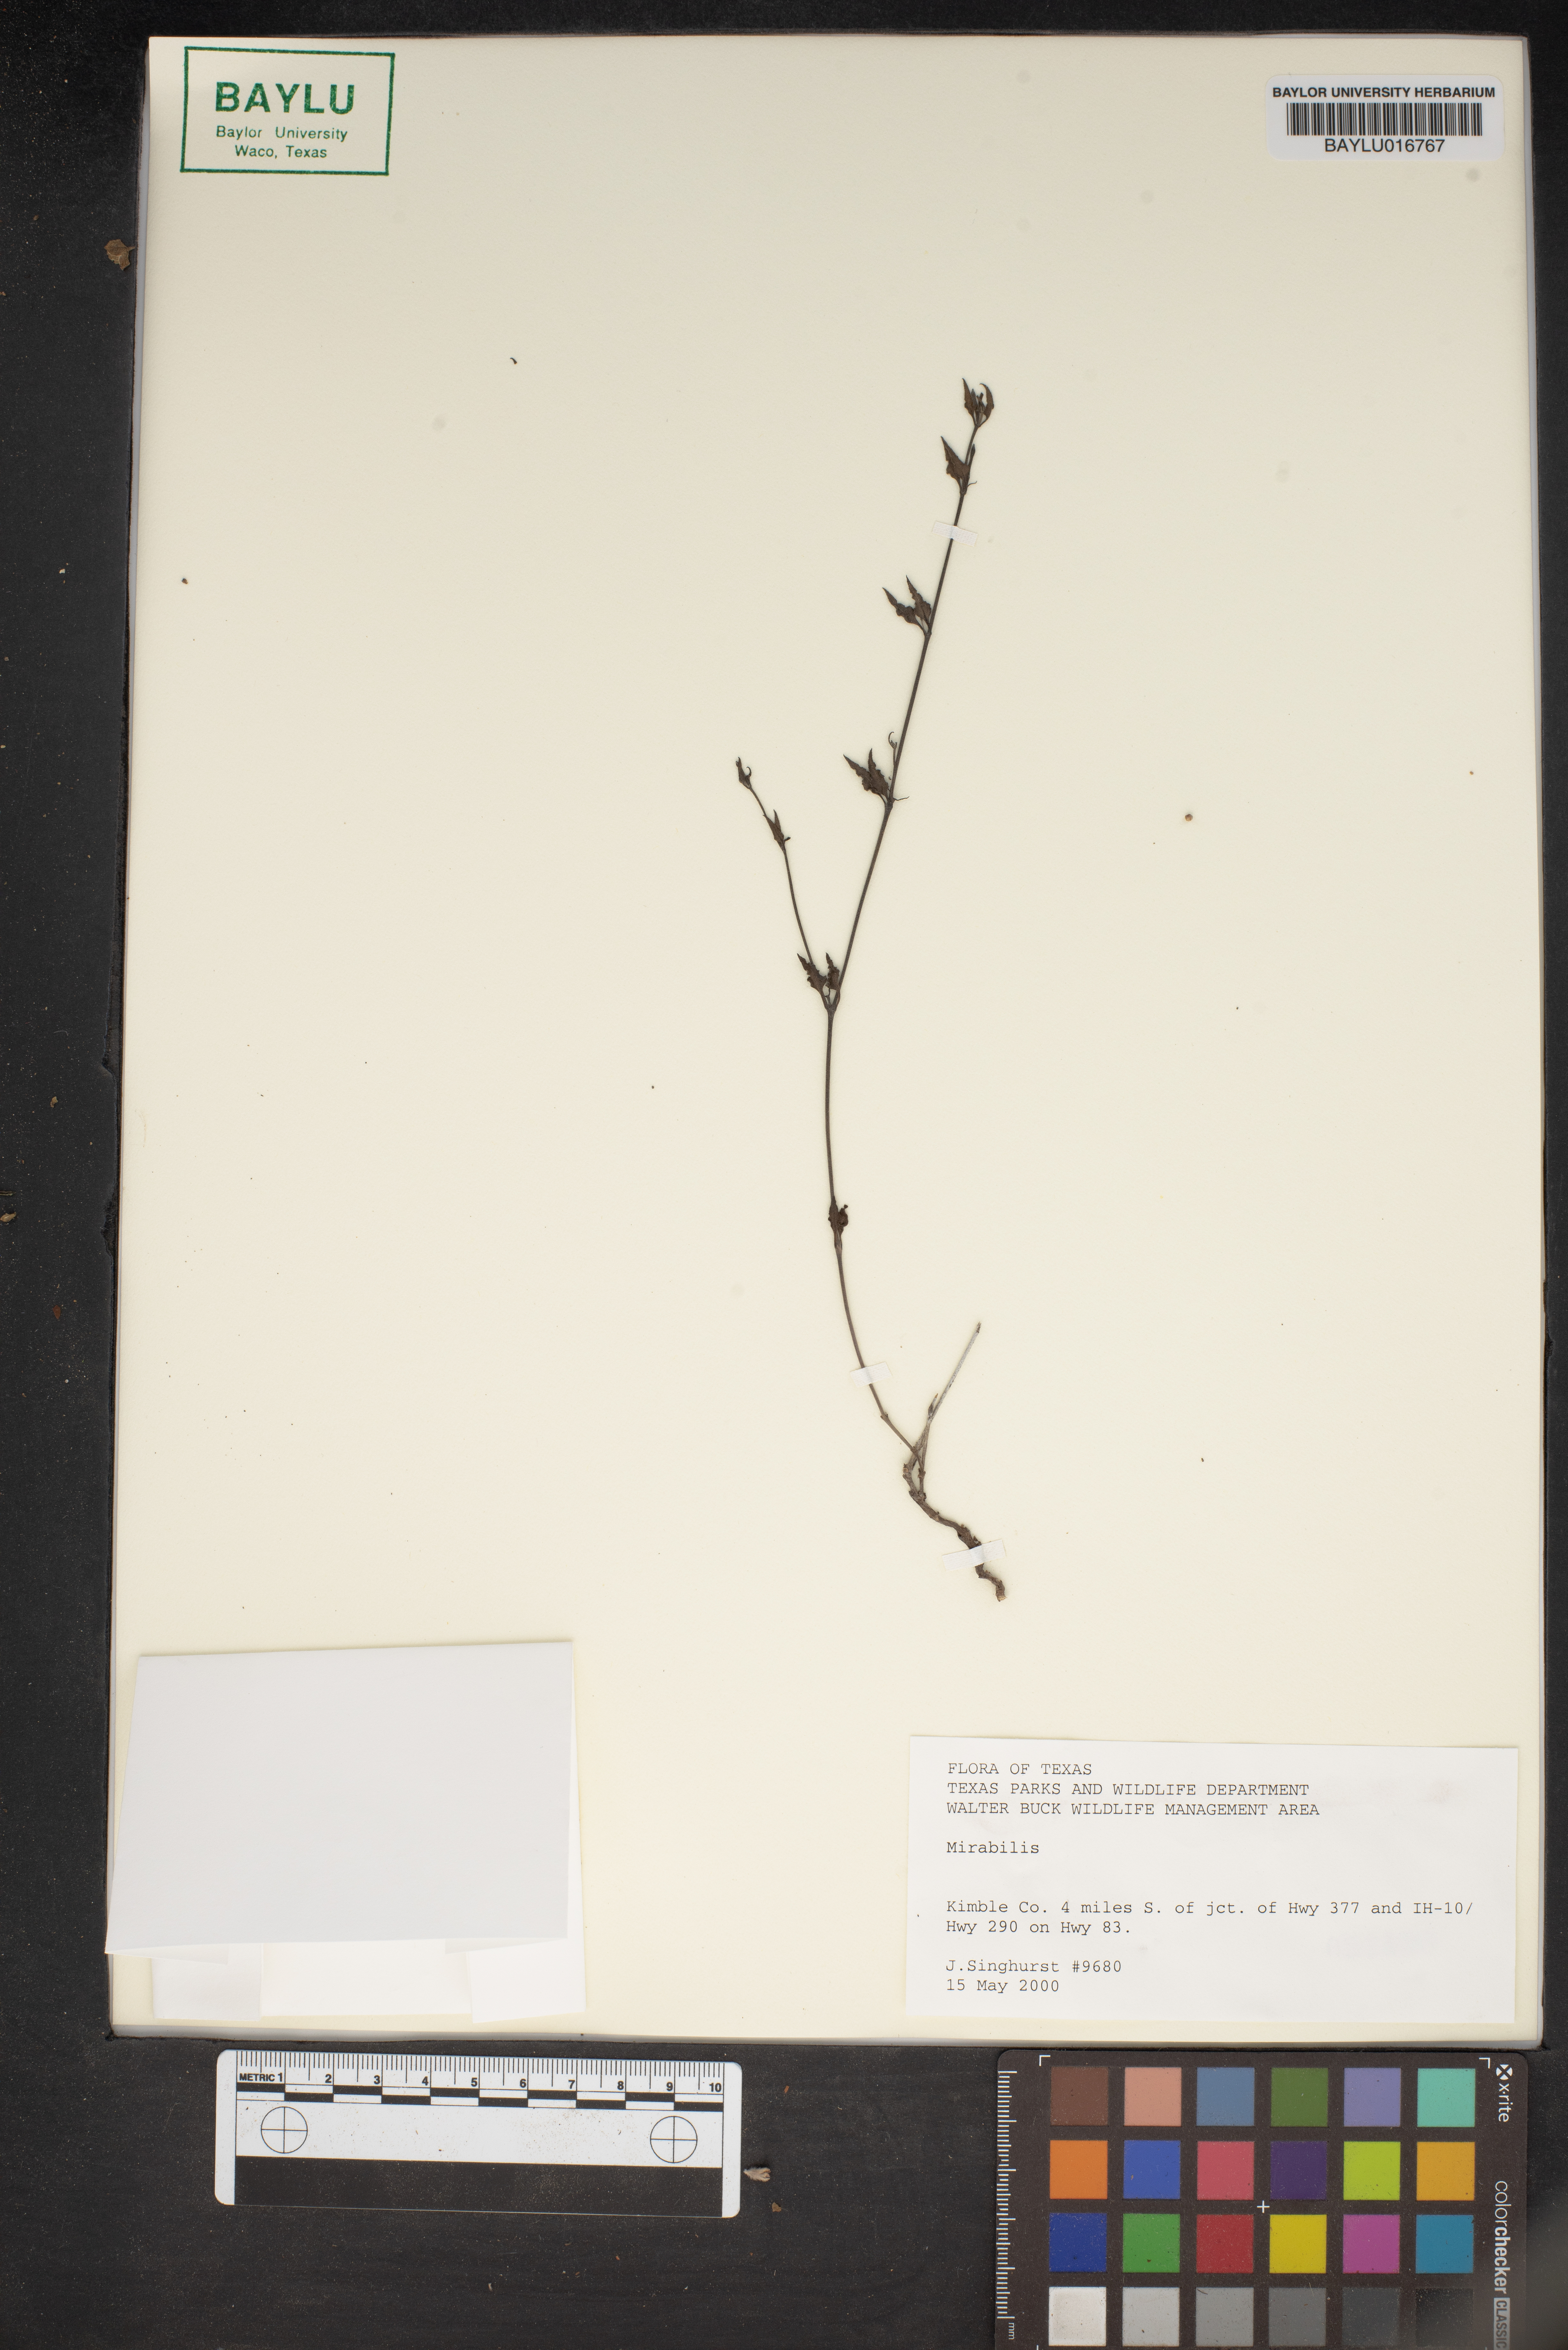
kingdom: Plantae
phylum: Tracheophyta
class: Magnoliopsida
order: Caryophyllales
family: Nyctaginaceae
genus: Mirabilis
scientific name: Mirabilis
